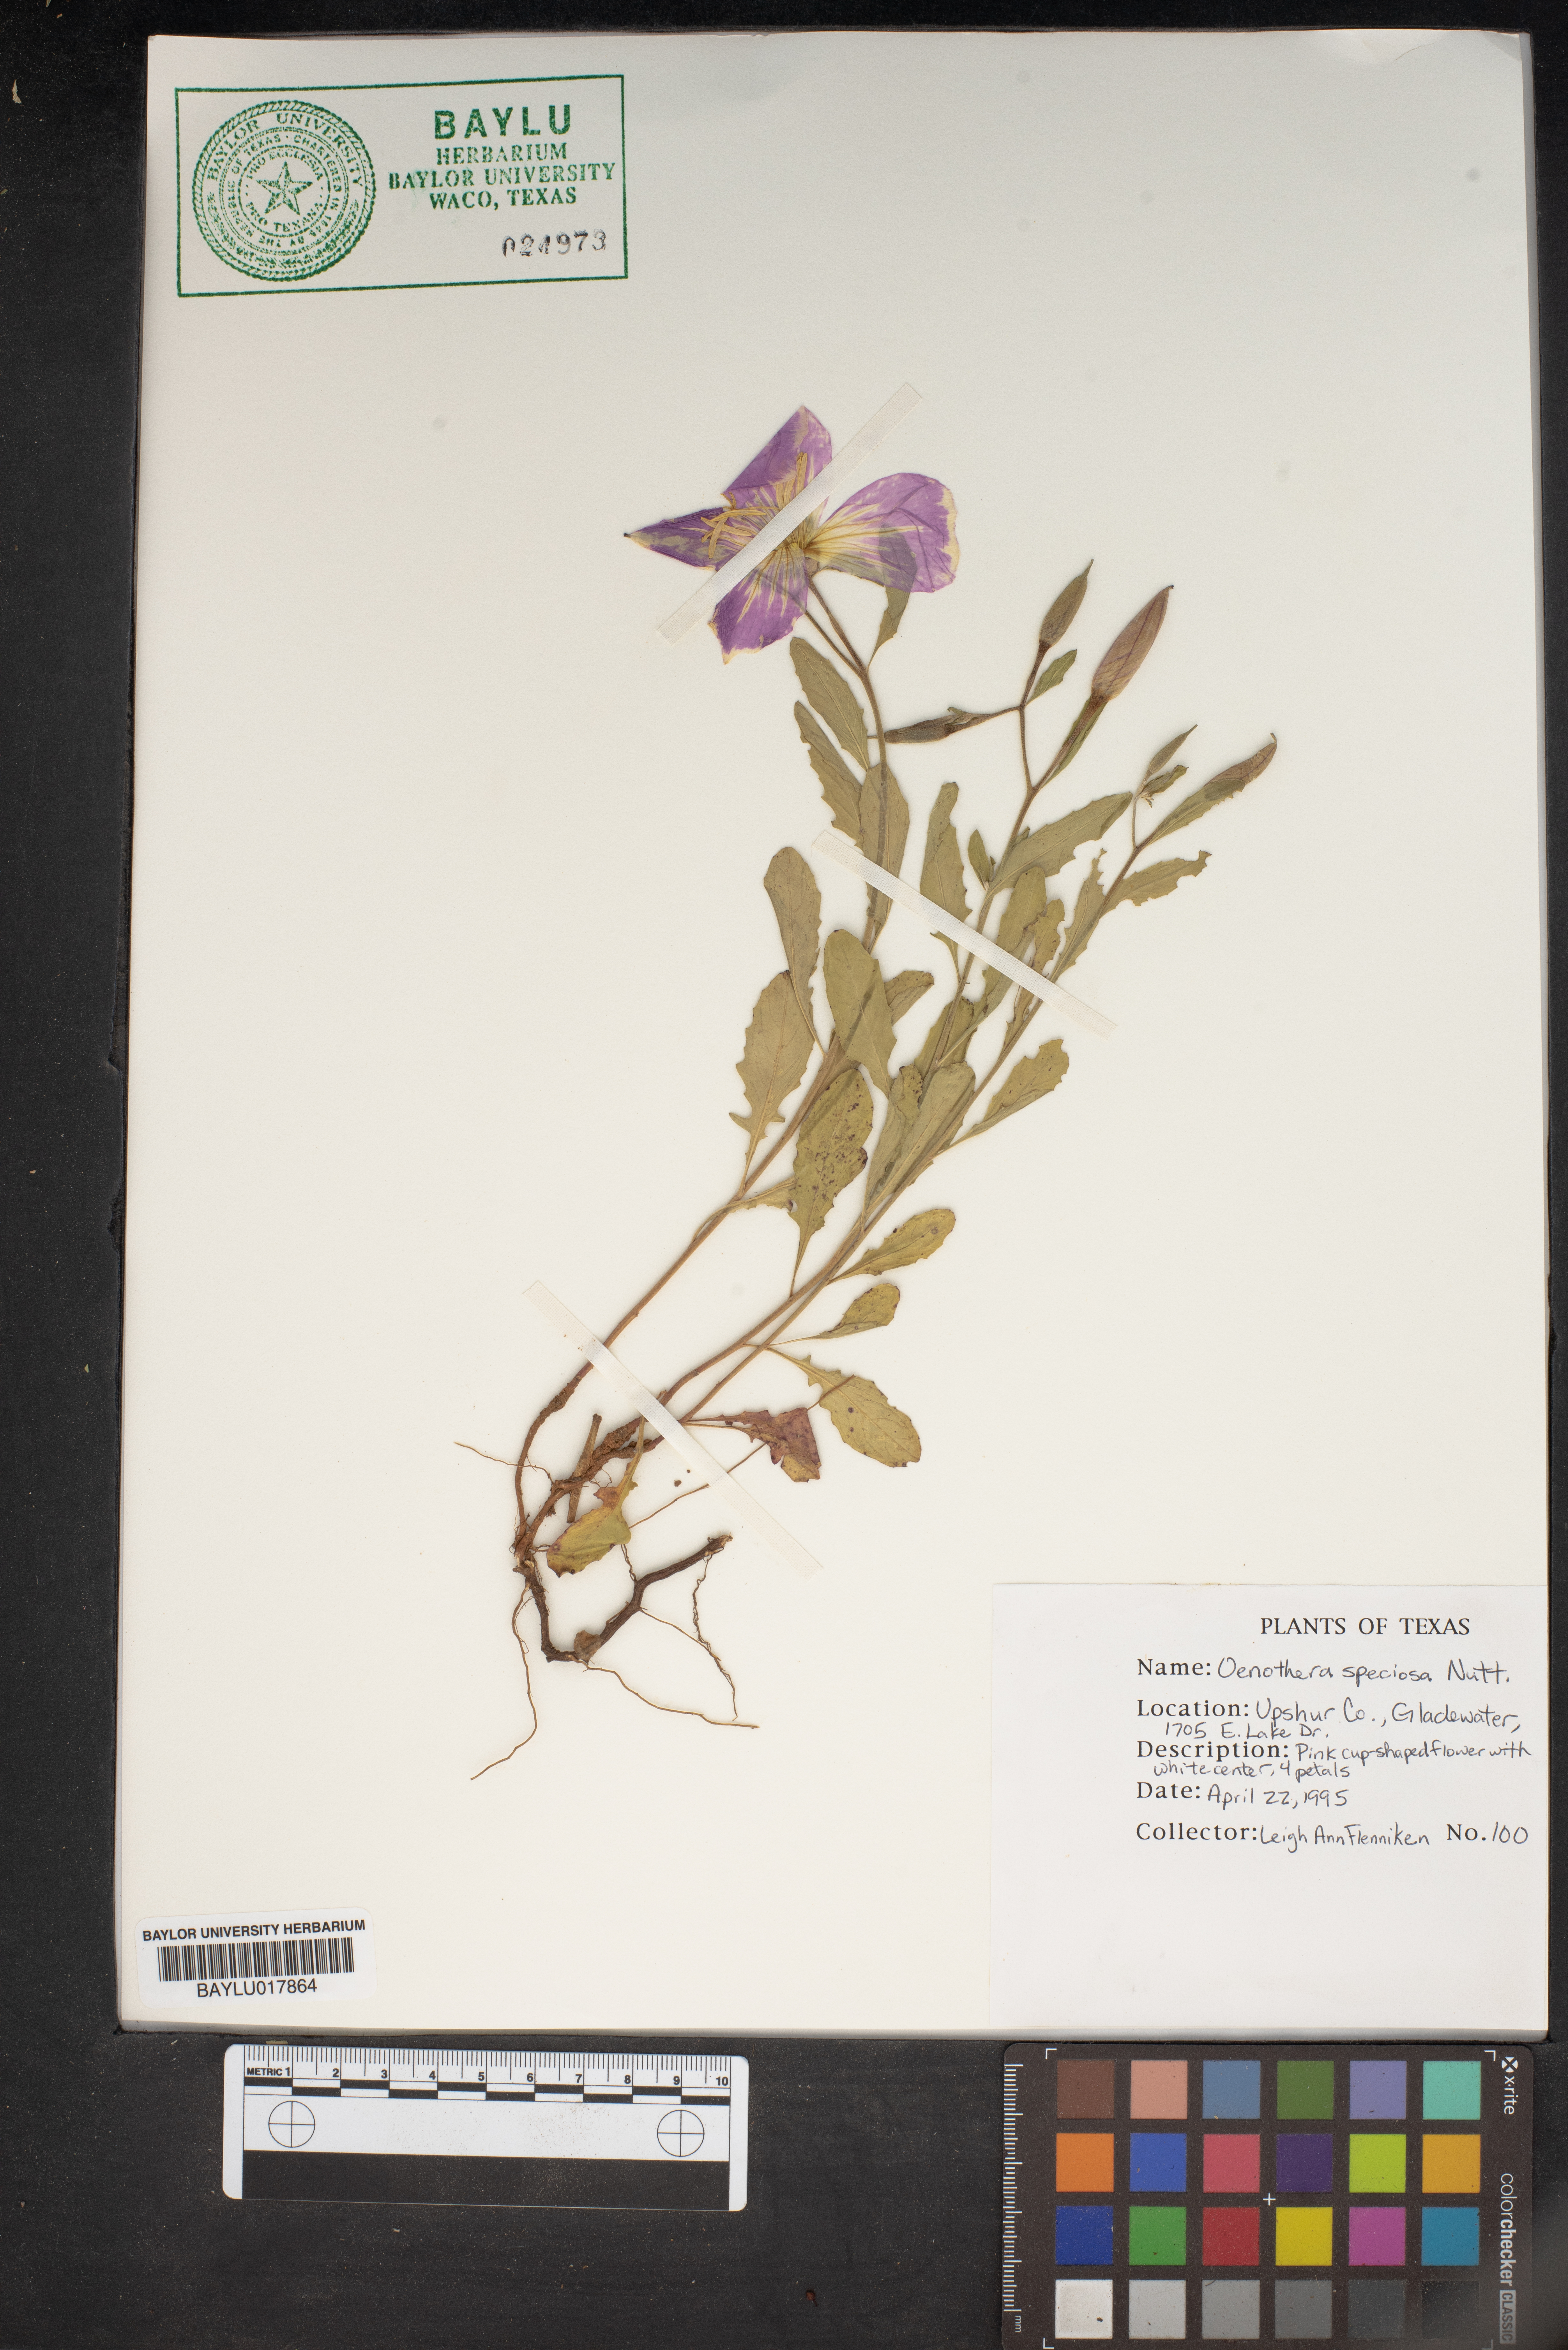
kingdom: Plantae
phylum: Tracheophyta
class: Magnoliopsida
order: Myrtales
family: Onagraceae
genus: Oenothera
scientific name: Oenothera speciosa
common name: White evening-primrose
